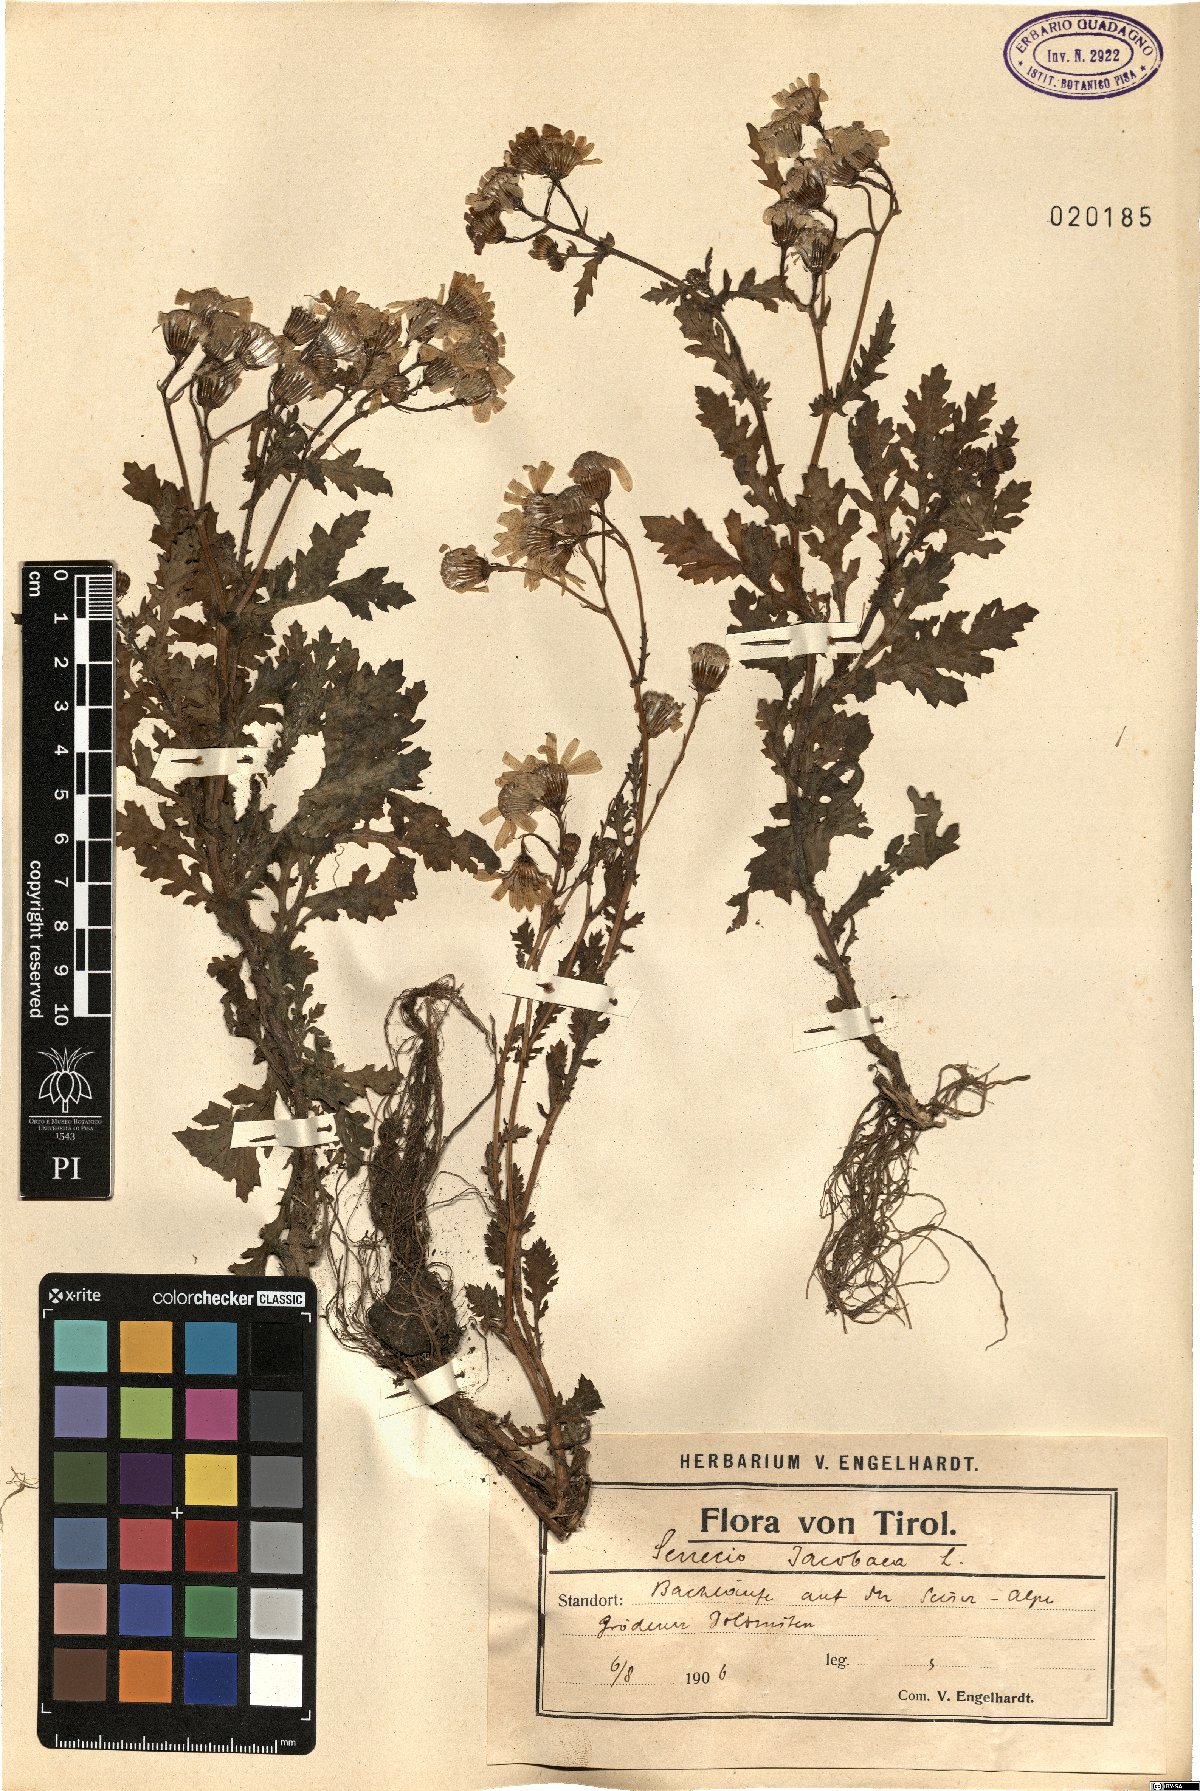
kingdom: Plantae
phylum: Tracheophyta
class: Magnoliopsida
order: Asterales
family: Asteraceae
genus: Jacobaea
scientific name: Jacobaea vulgaris
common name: Stinking willie
